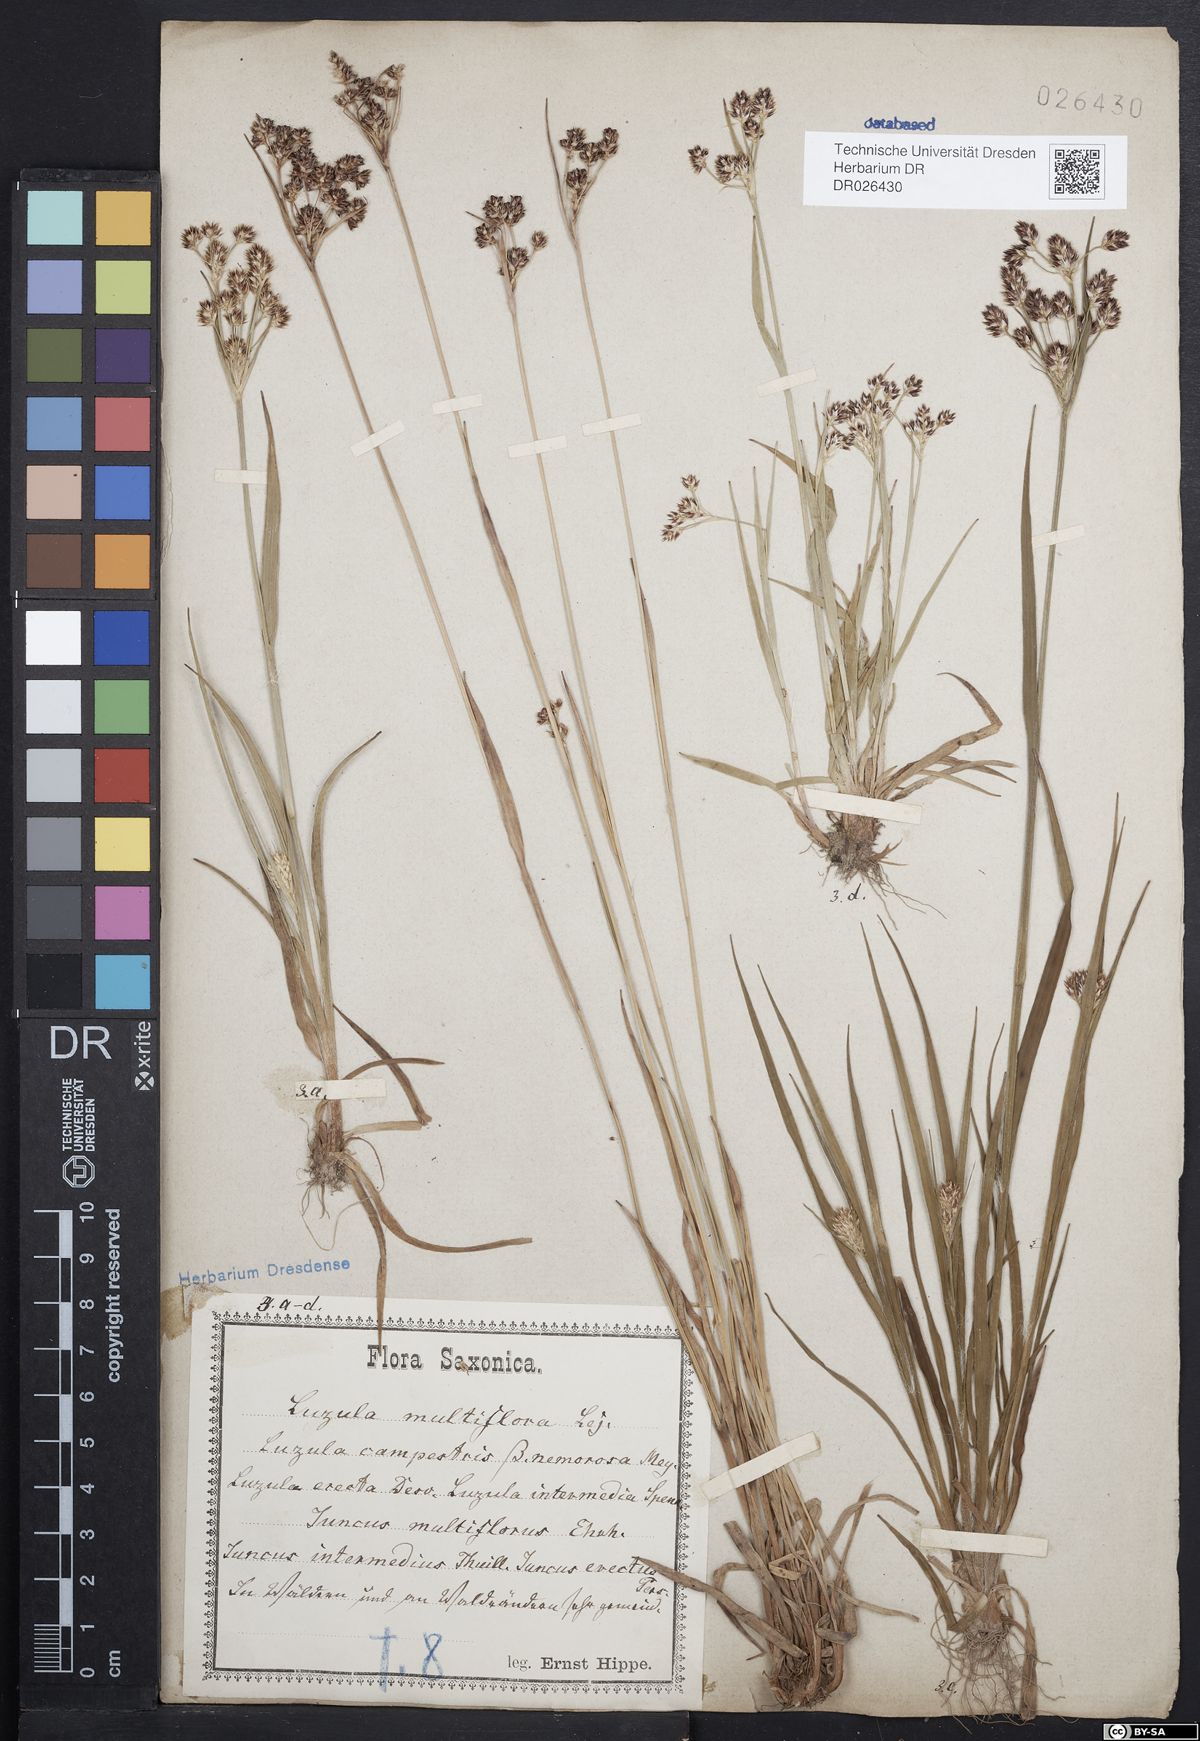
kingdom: Plantae
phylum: Tracheophyta
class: Liliopsida
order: Poales
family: Juncaceae
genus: Luzula
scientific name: Luzula multiflora
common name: Heath wood-rush
